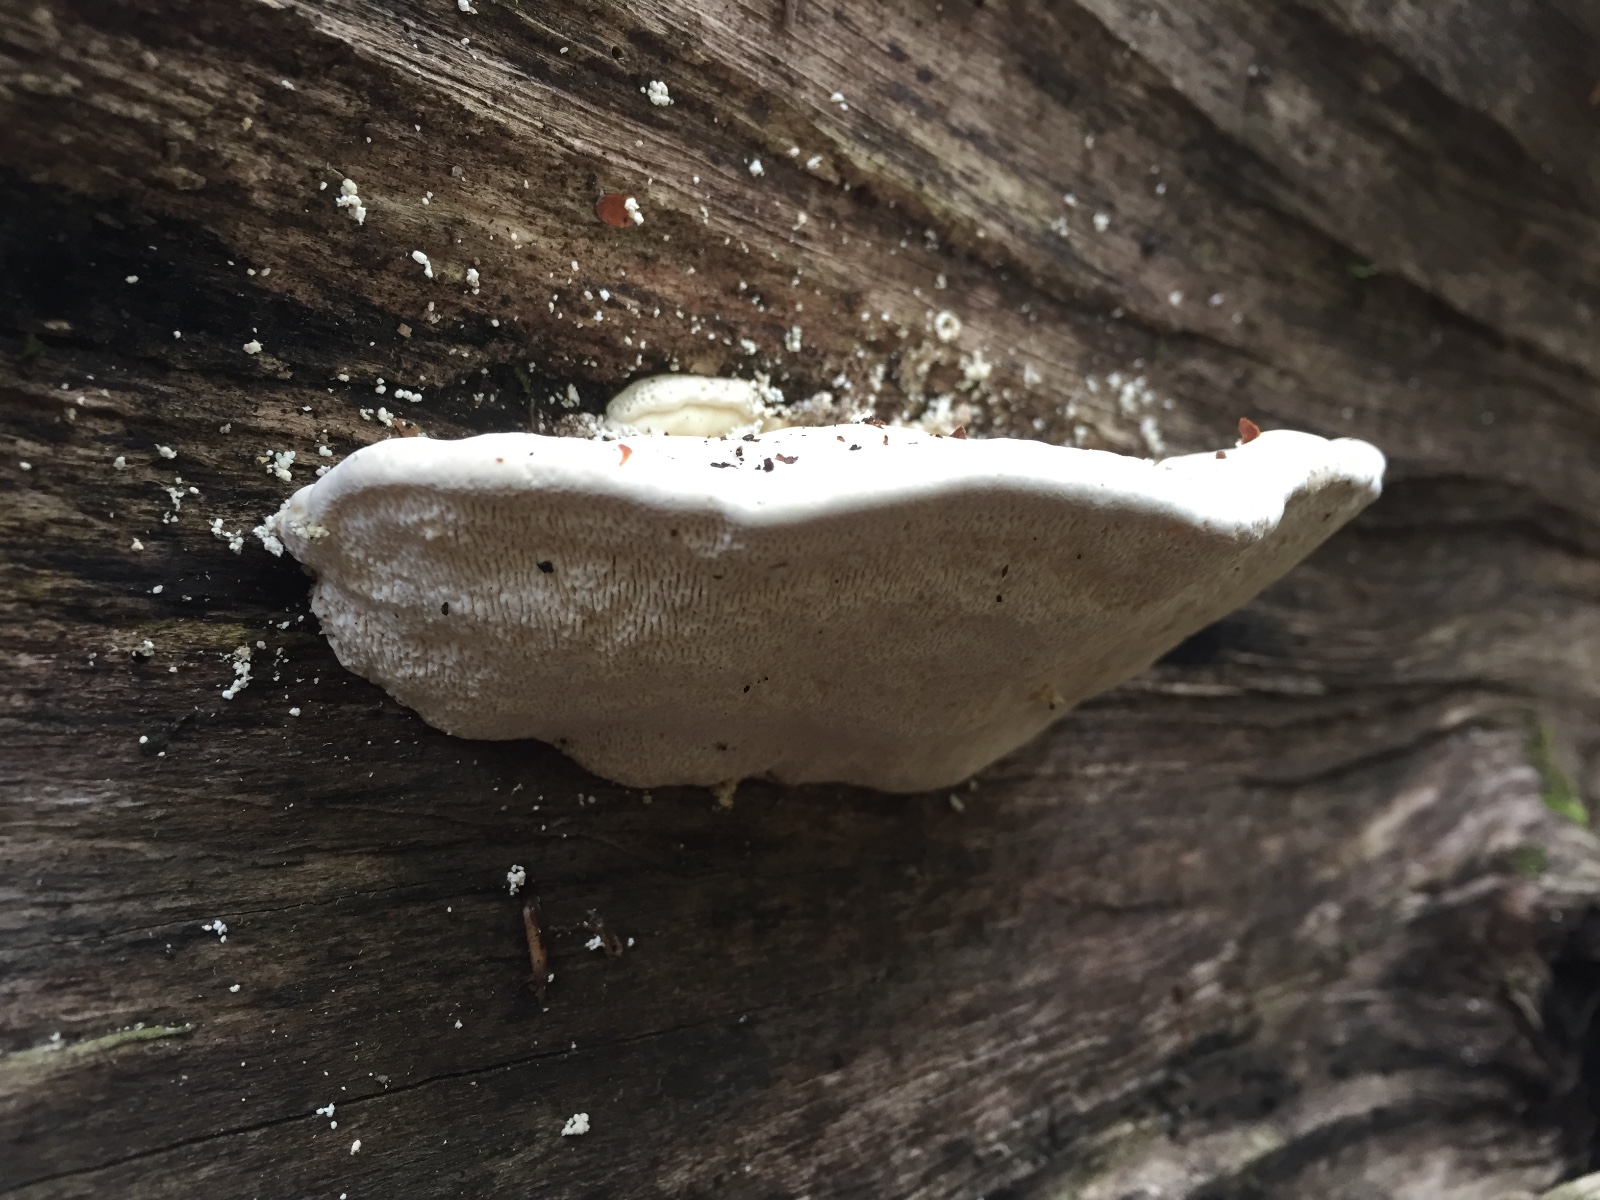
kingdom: Fungi
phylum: Basidiomycota
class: Agaricomycetes
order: Polyporales
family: Polyporaceae
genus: Trametes
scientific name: Trametes gibbosa
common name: puklet læderporesvamp
